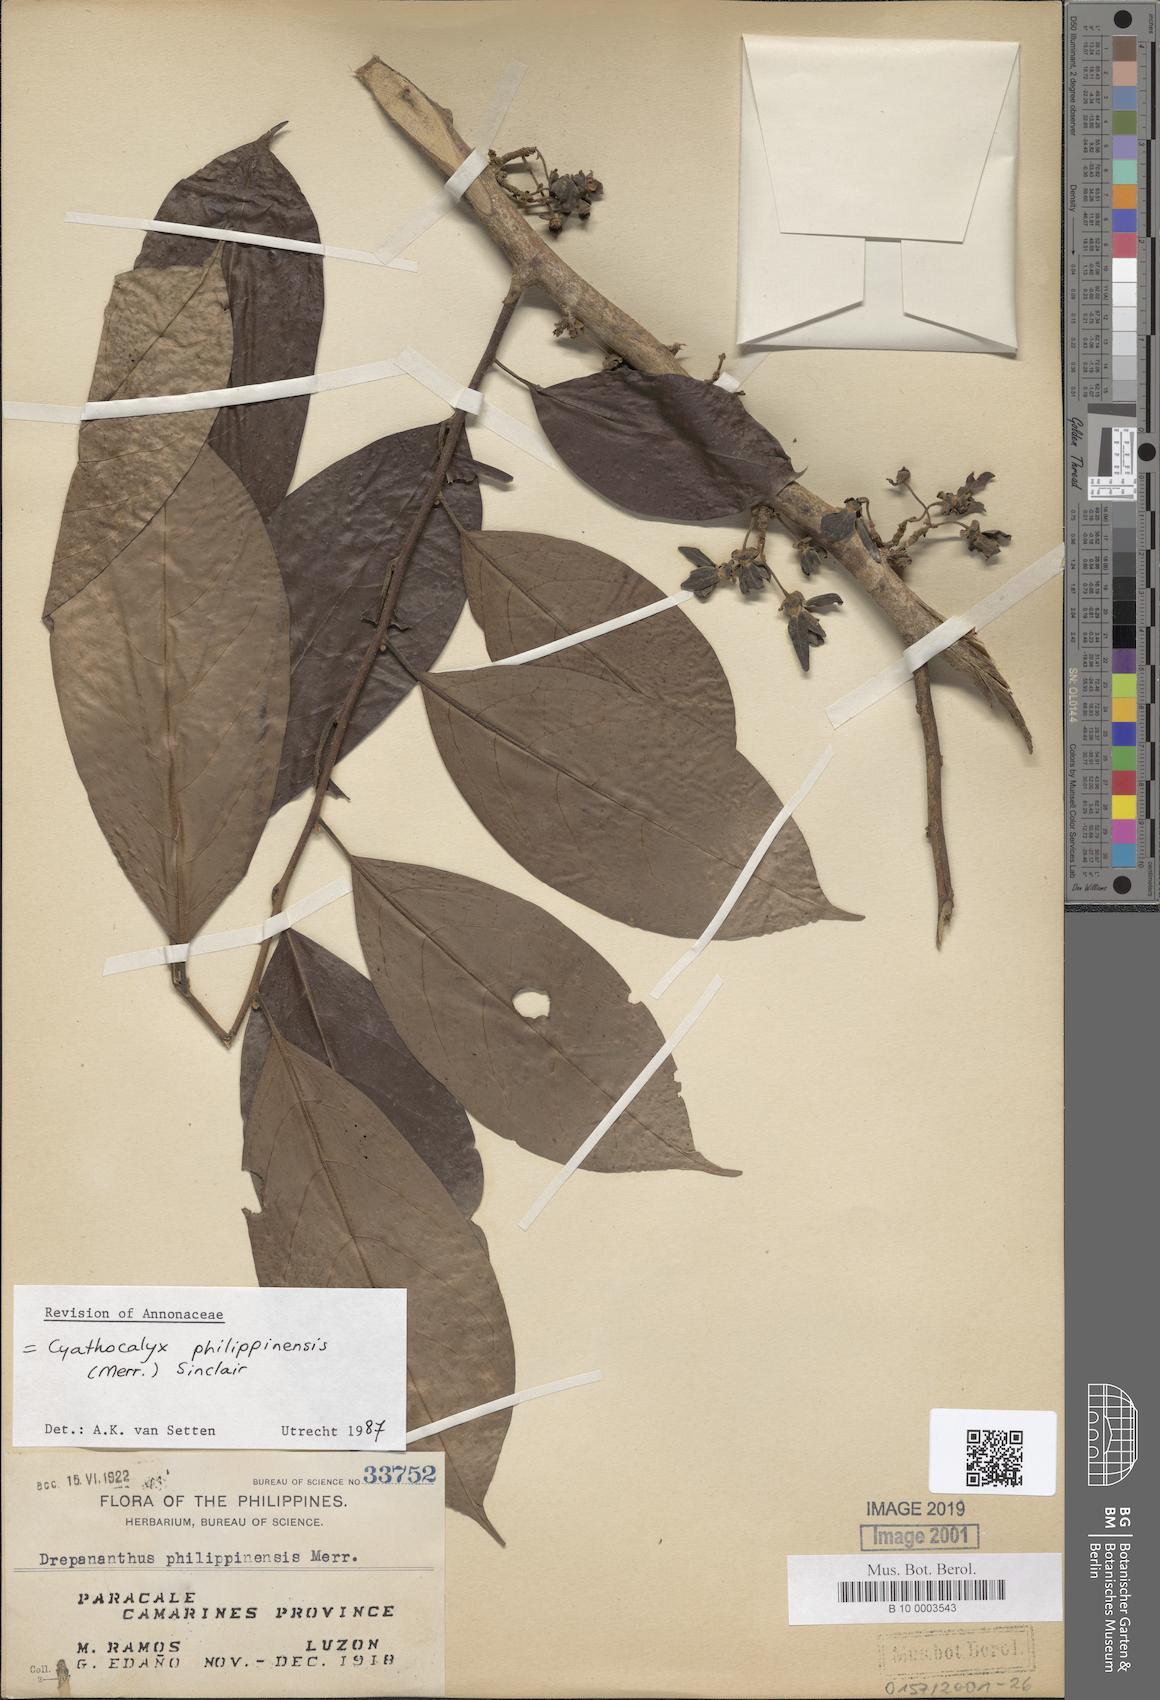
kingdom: Plantae
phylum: Tracheophyta
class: Magnoliopsida
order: Magnoliales
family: Annonaceae
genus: Drepananthus
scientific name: Drepananthus acuminatus
